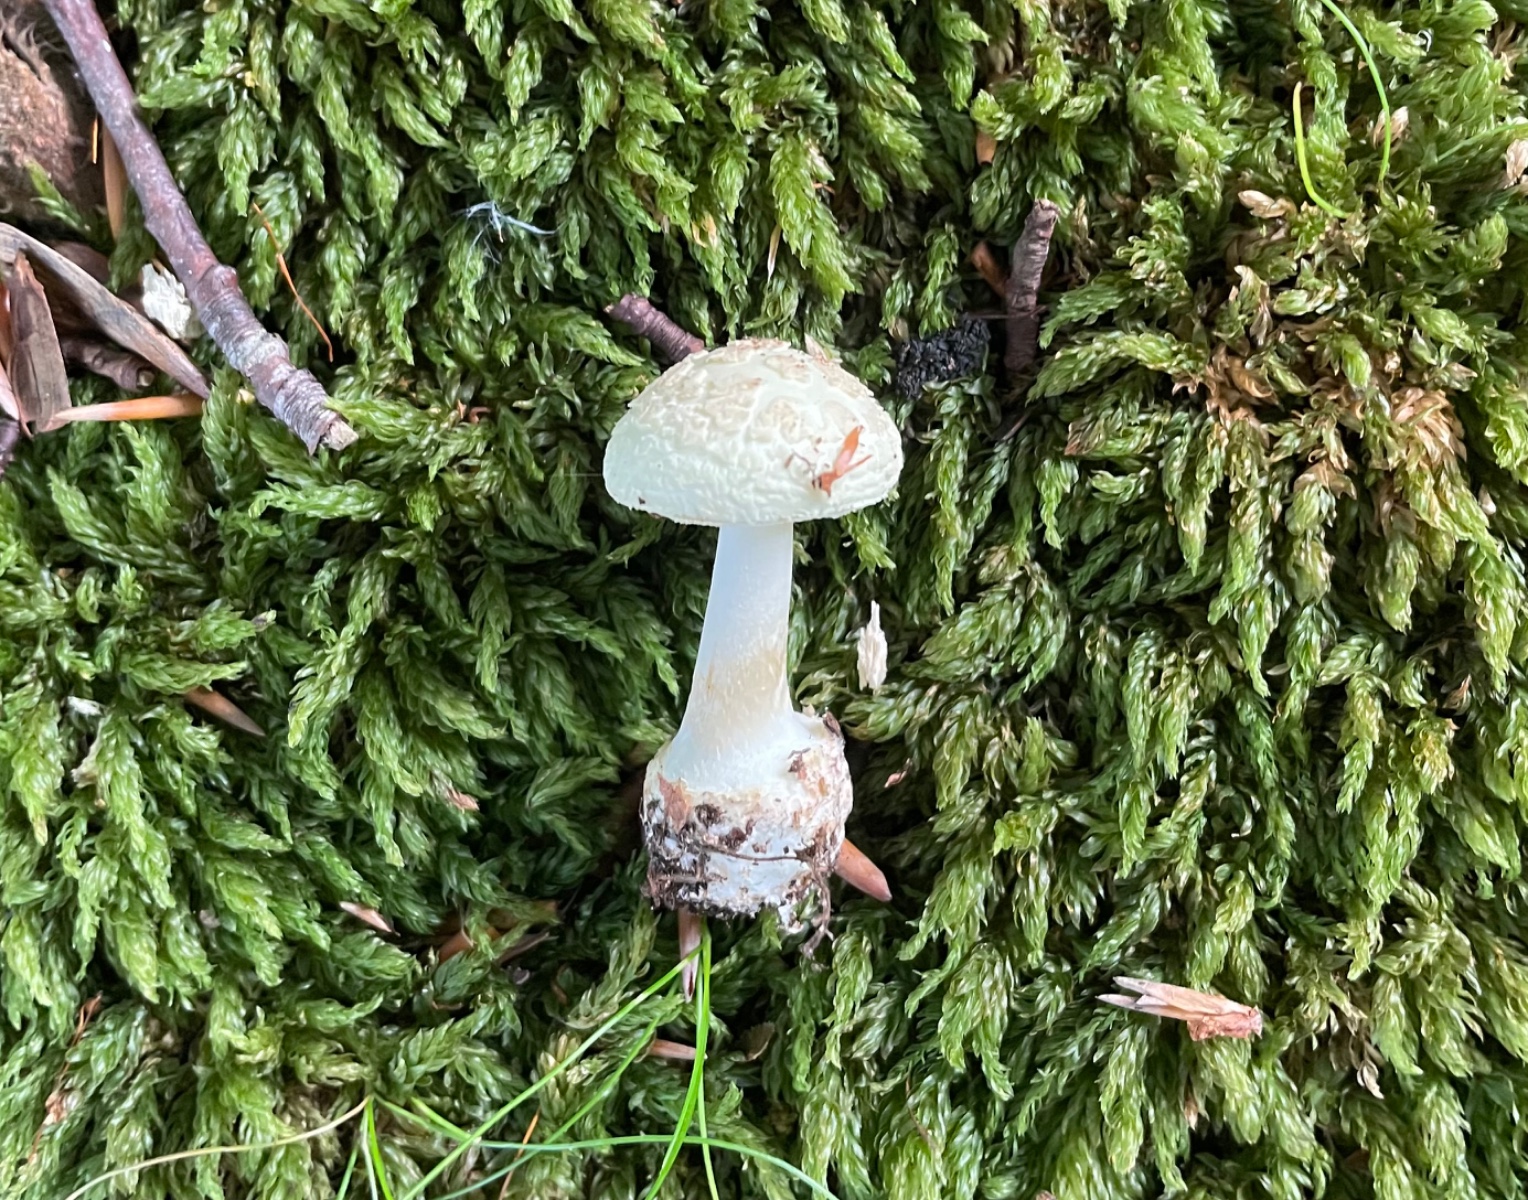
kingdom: Fungi
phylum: Basidiomycota
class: Agaricomycetes
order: Agaricales
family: Amanitaceae
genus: Amanita
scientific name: Amanita citrina
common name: kugleknoldet fluesvamp
